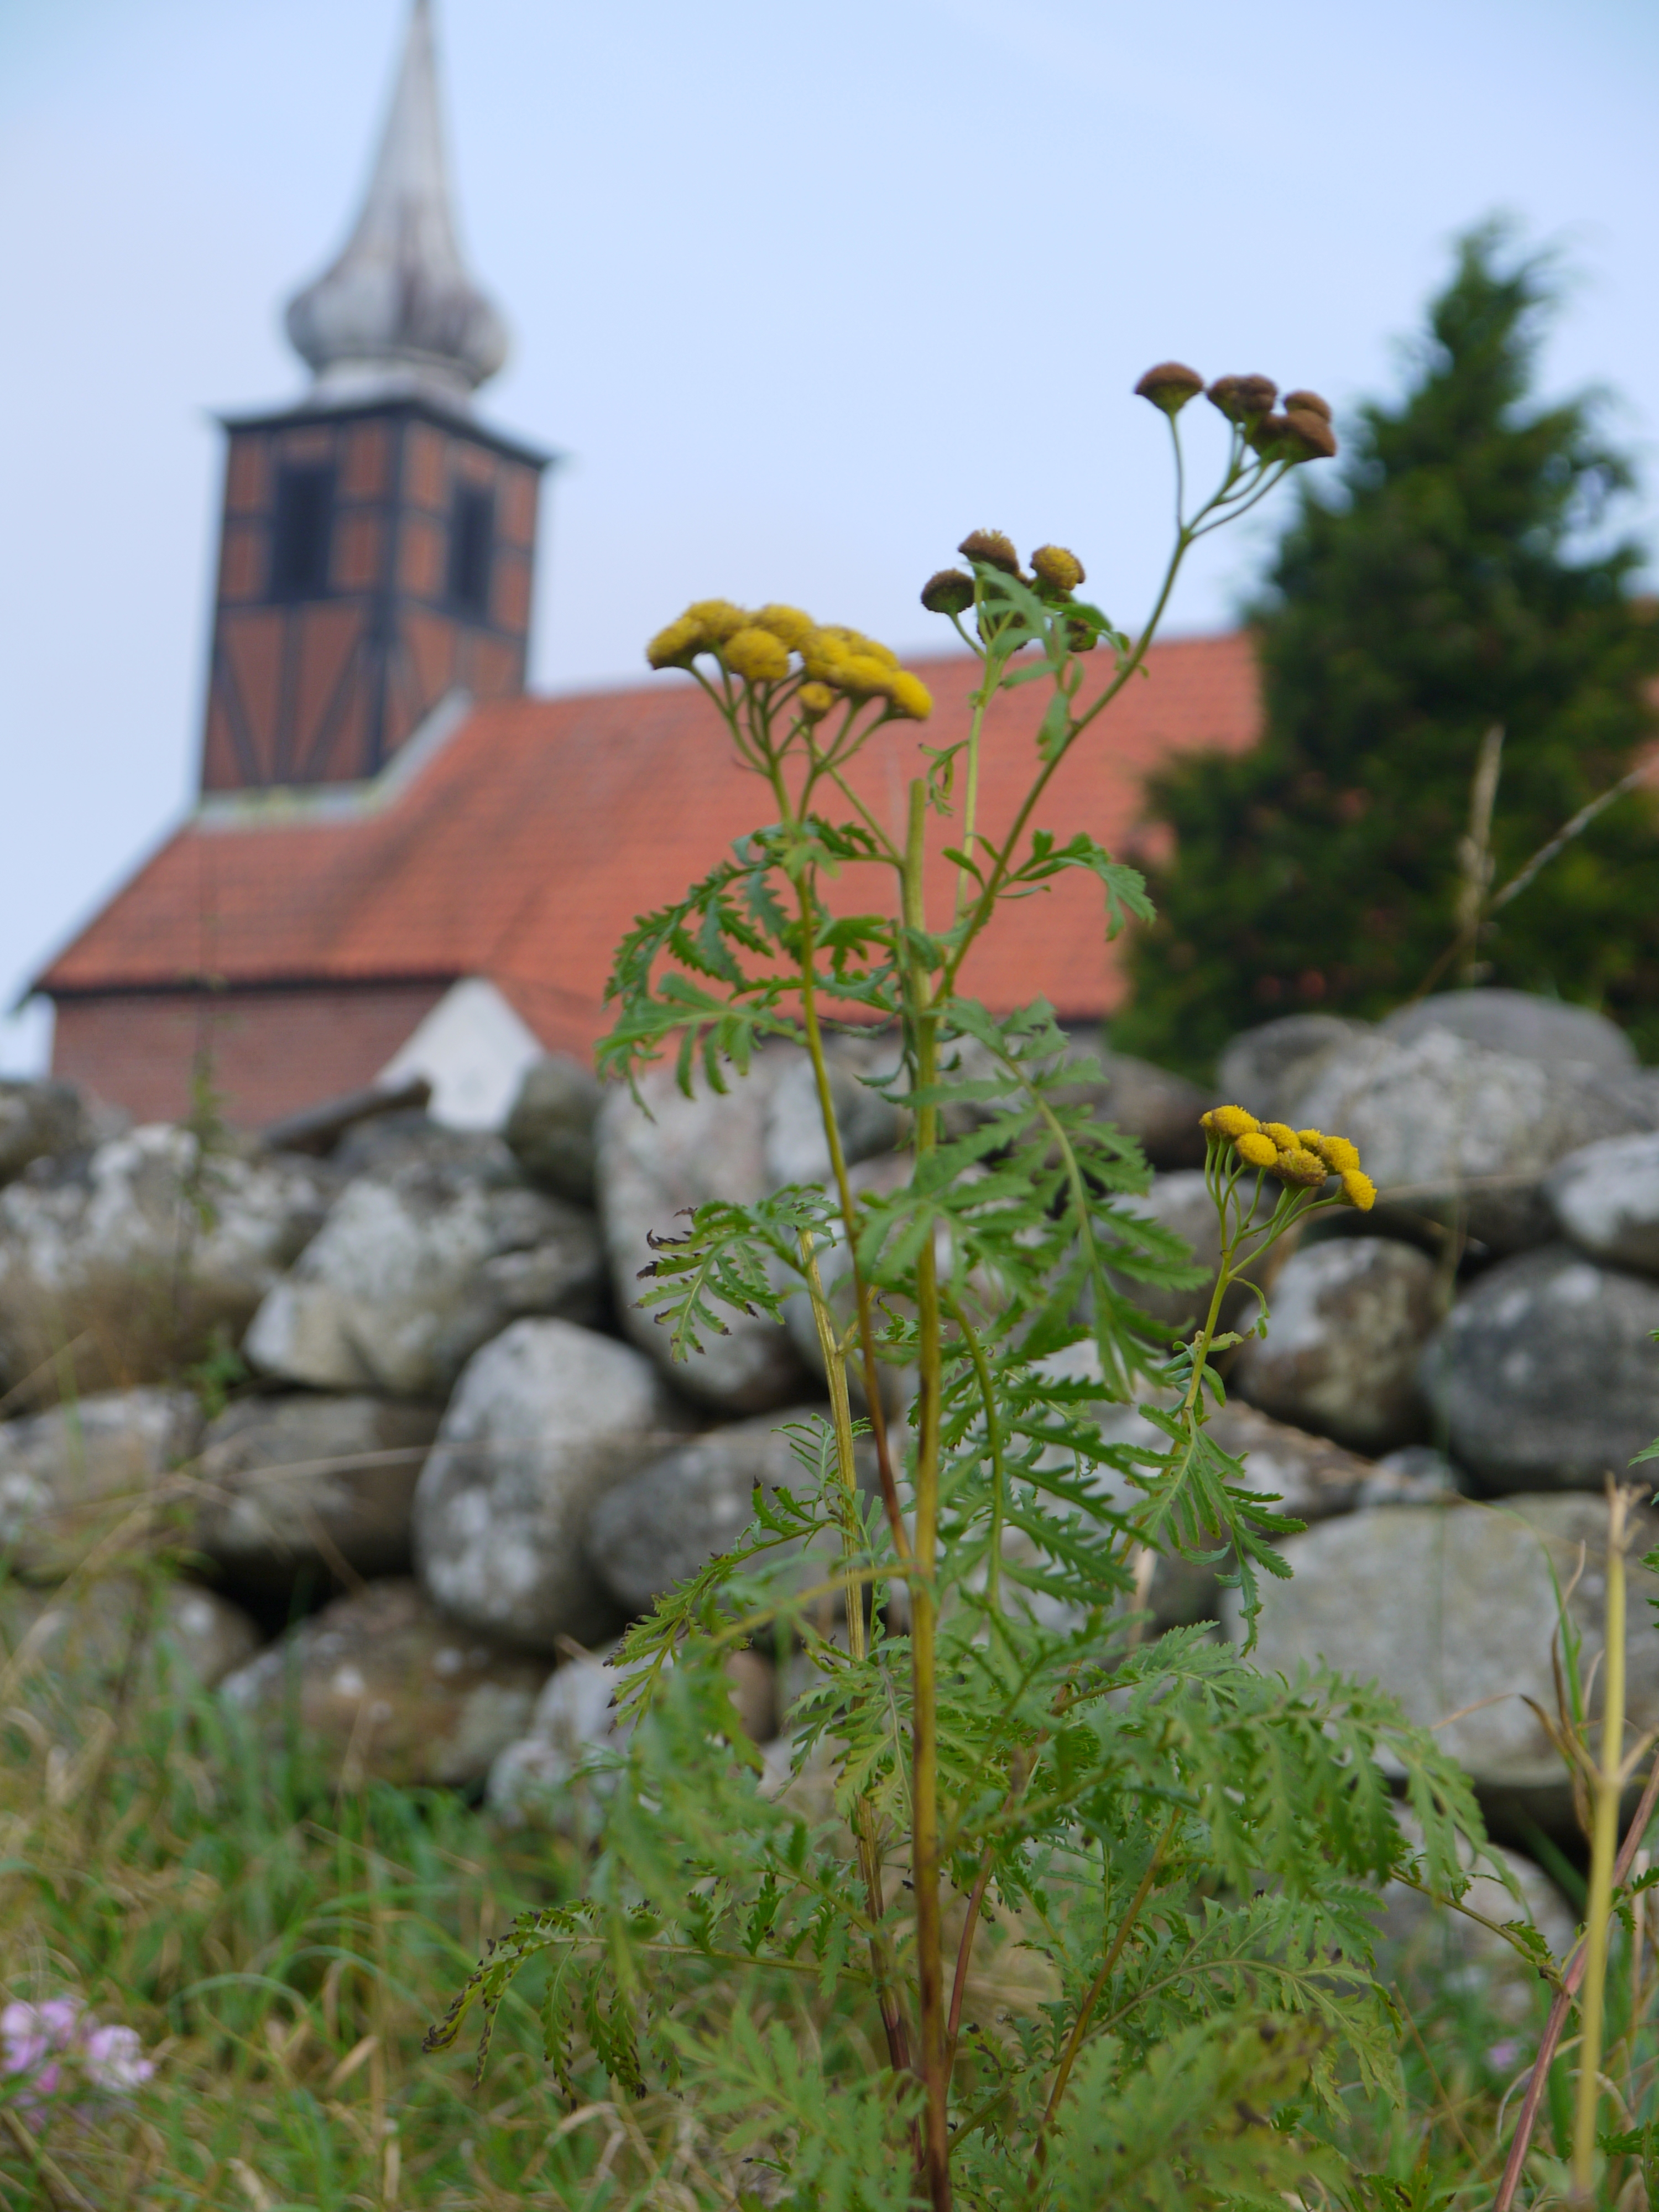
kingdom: Plantae
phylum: Tracheophyta
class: Magnoliopsida
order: Asterales
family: Asteraceae
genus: Tanacetum
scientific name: Tanacetum vulgare
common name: Common tansy
